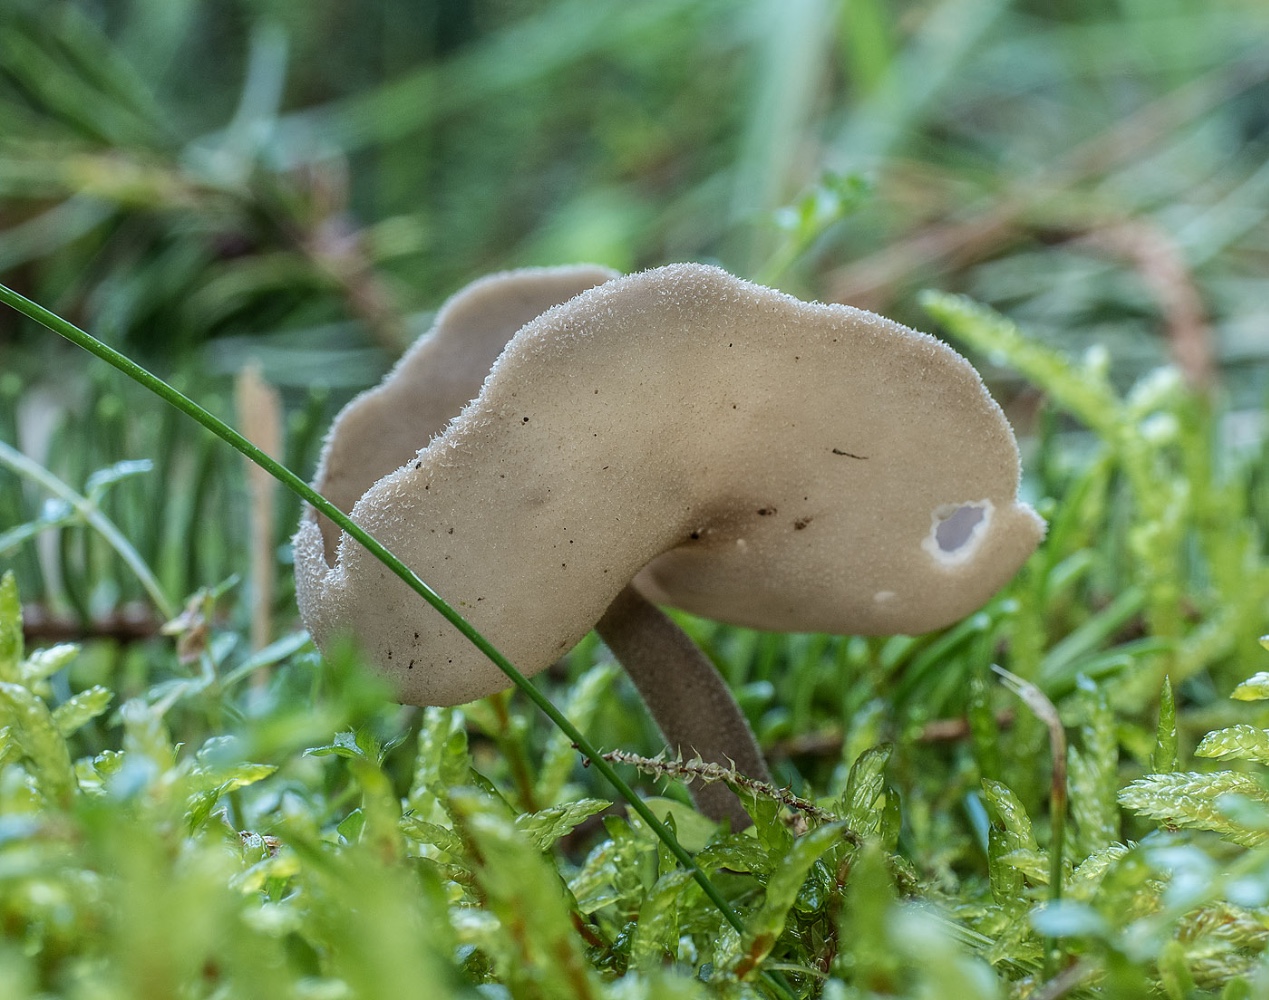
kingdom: Fungi
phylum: Ascomycota
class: Pezizomycetes
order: Pezizales
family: Helvellaceae
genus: Helvella
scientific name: Helvella macropus
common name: højstokket foldhat
